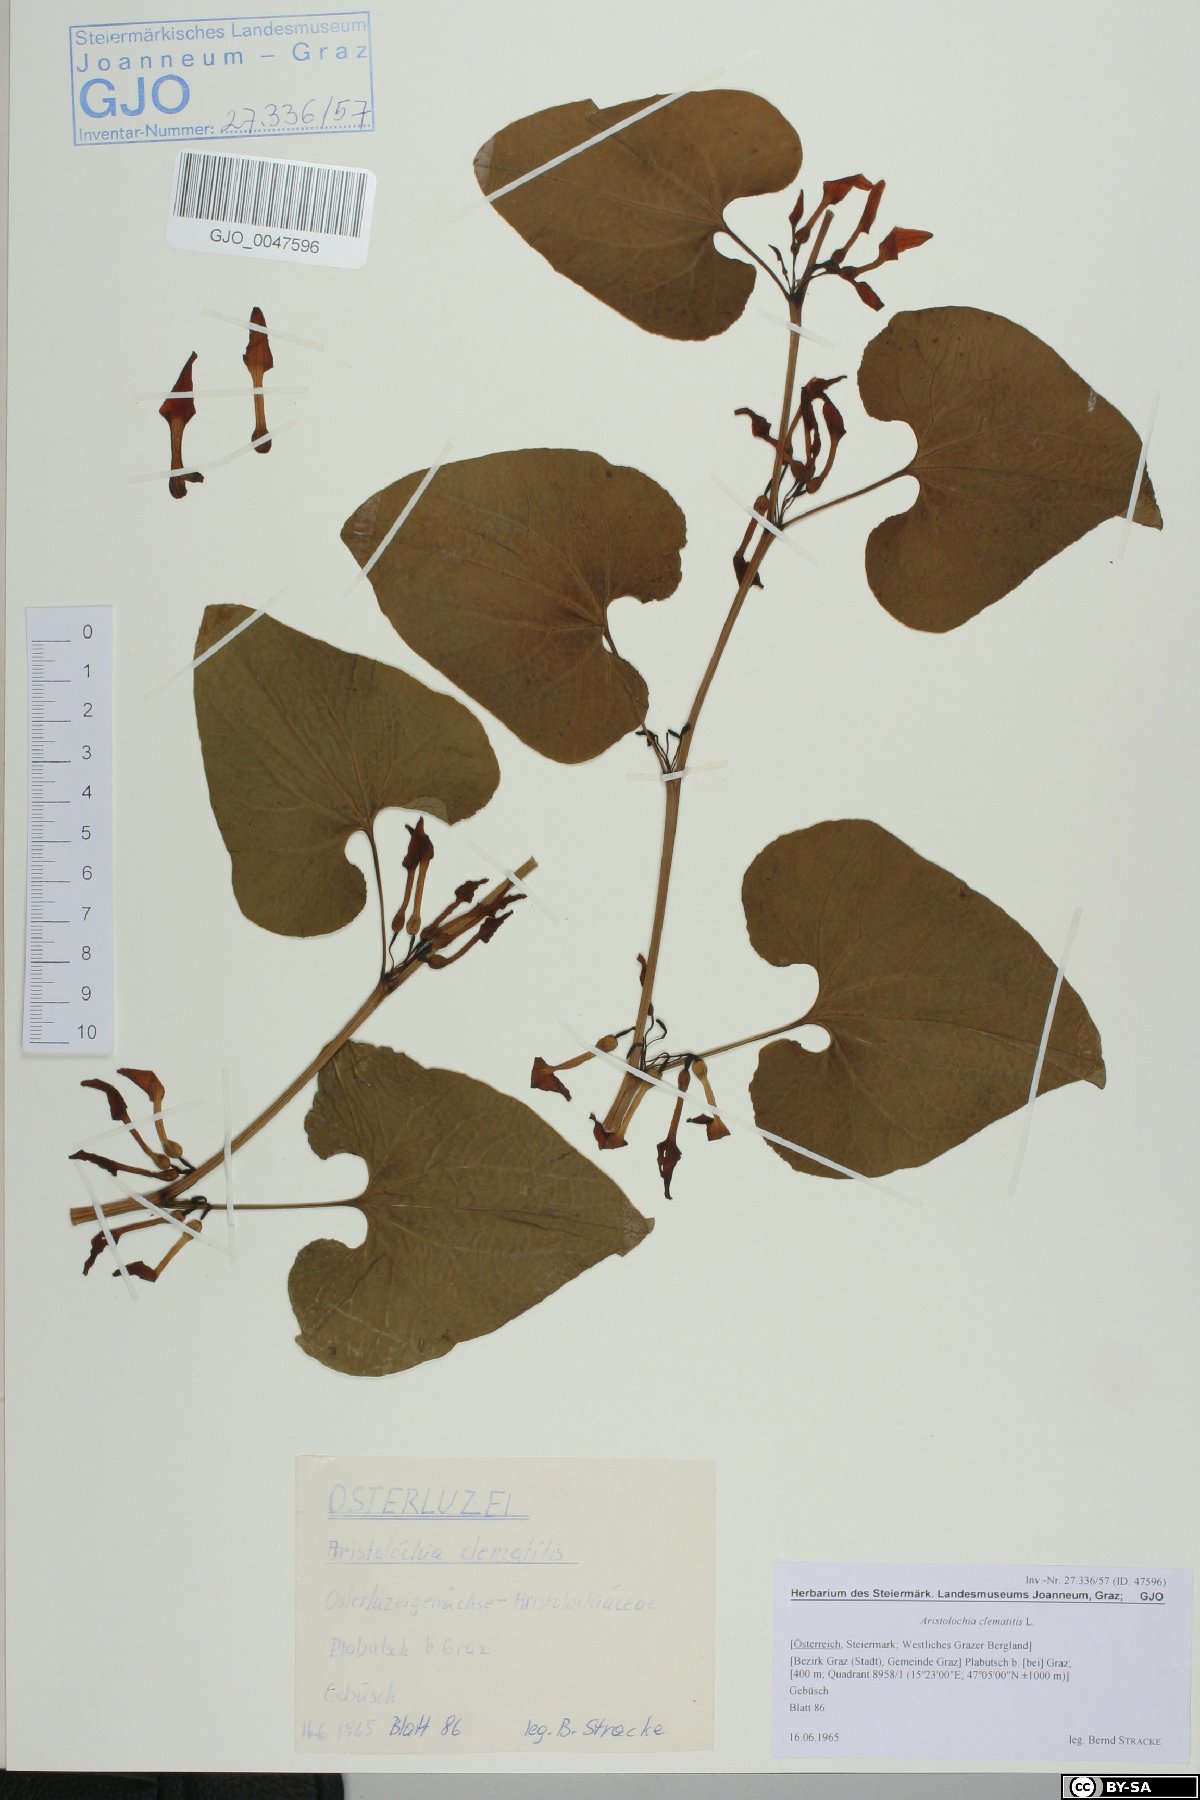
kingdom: Plantae
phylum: Tracheophyta
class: Magnoliopsida
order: Piperales
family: Aristolochiaceae
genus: Aristolochia
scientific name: Aristolochia clematitis
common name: Birthwort
